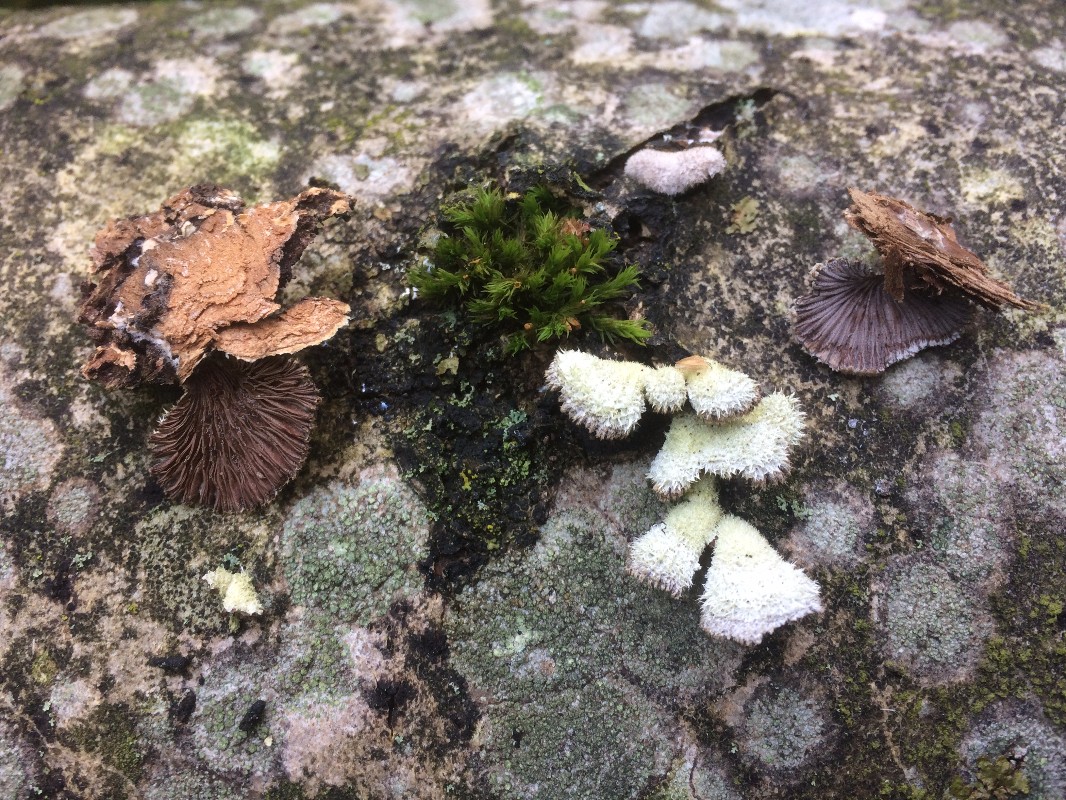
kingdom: Fungi
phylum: Basidiomycota
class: Agaricomycetes
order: Agaricales
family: Schizophyllaceae
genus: Schizophyllum
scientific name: Schizophyllum commune
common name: kløvblad
